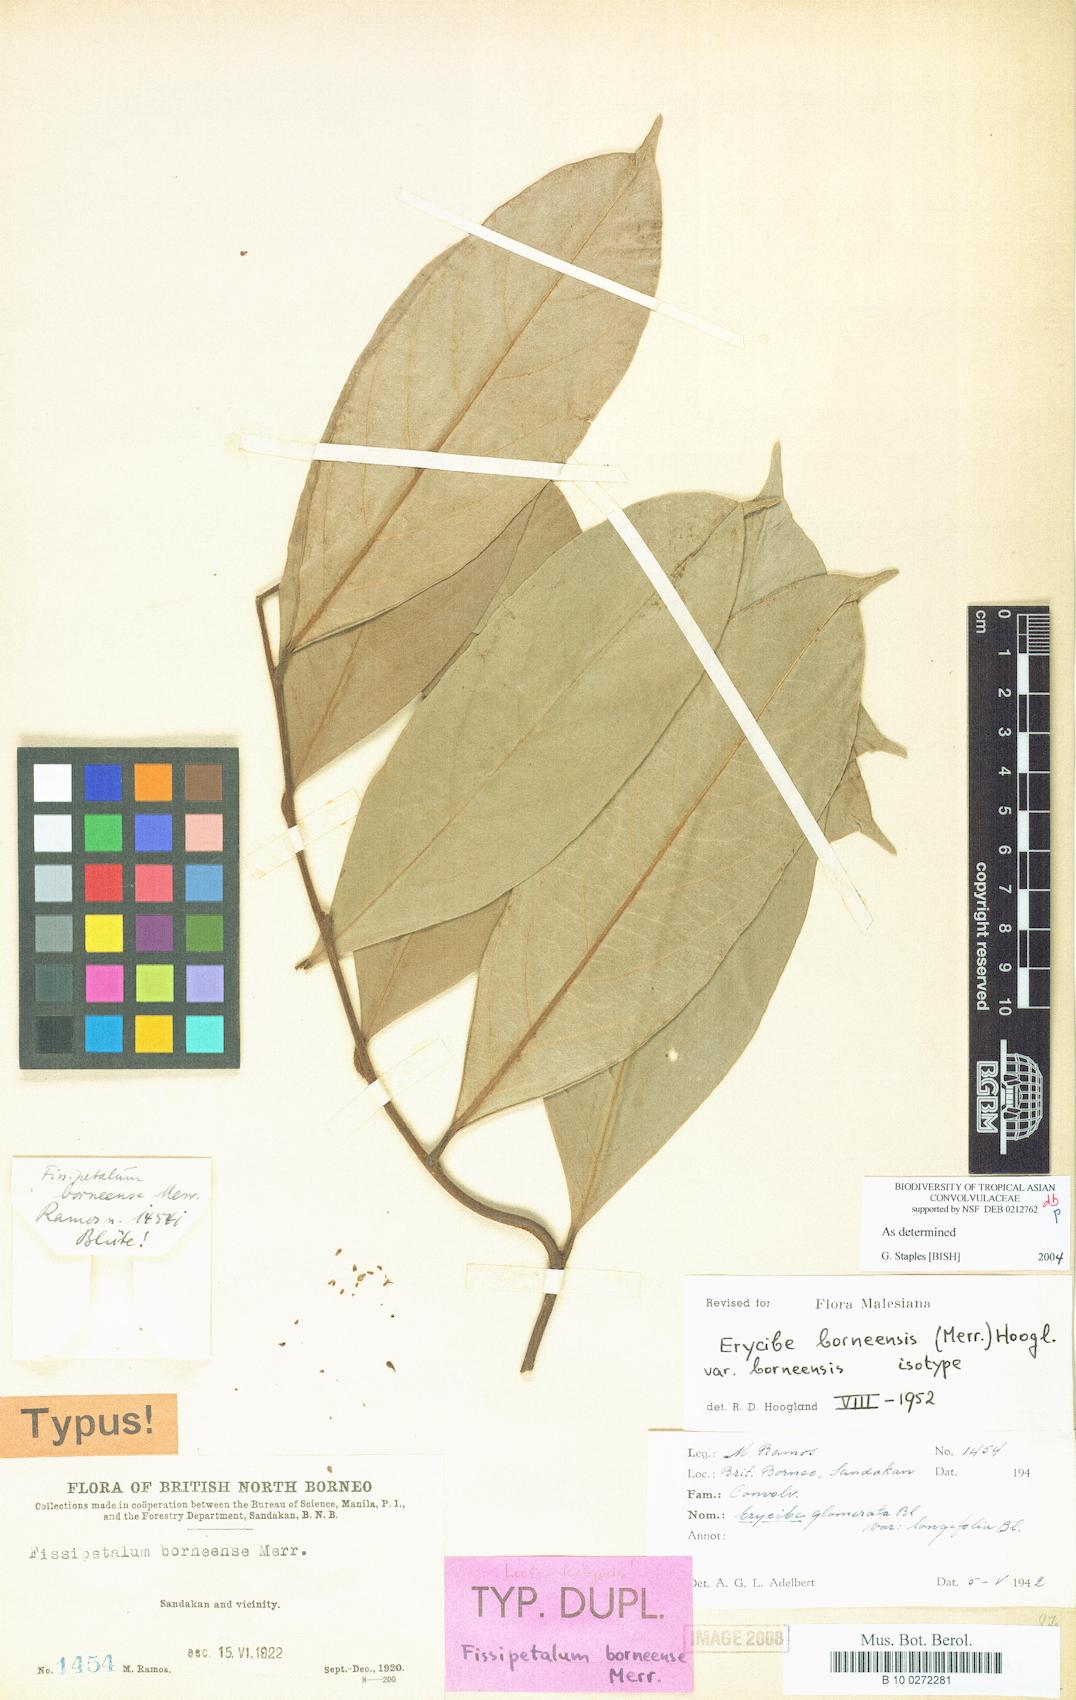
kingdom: Plantae
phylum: Tracheophyta
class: Magnoliopsida
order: Solanales
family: Convolvulaceae
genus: Erycibe
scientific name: Erycibe borneensis
